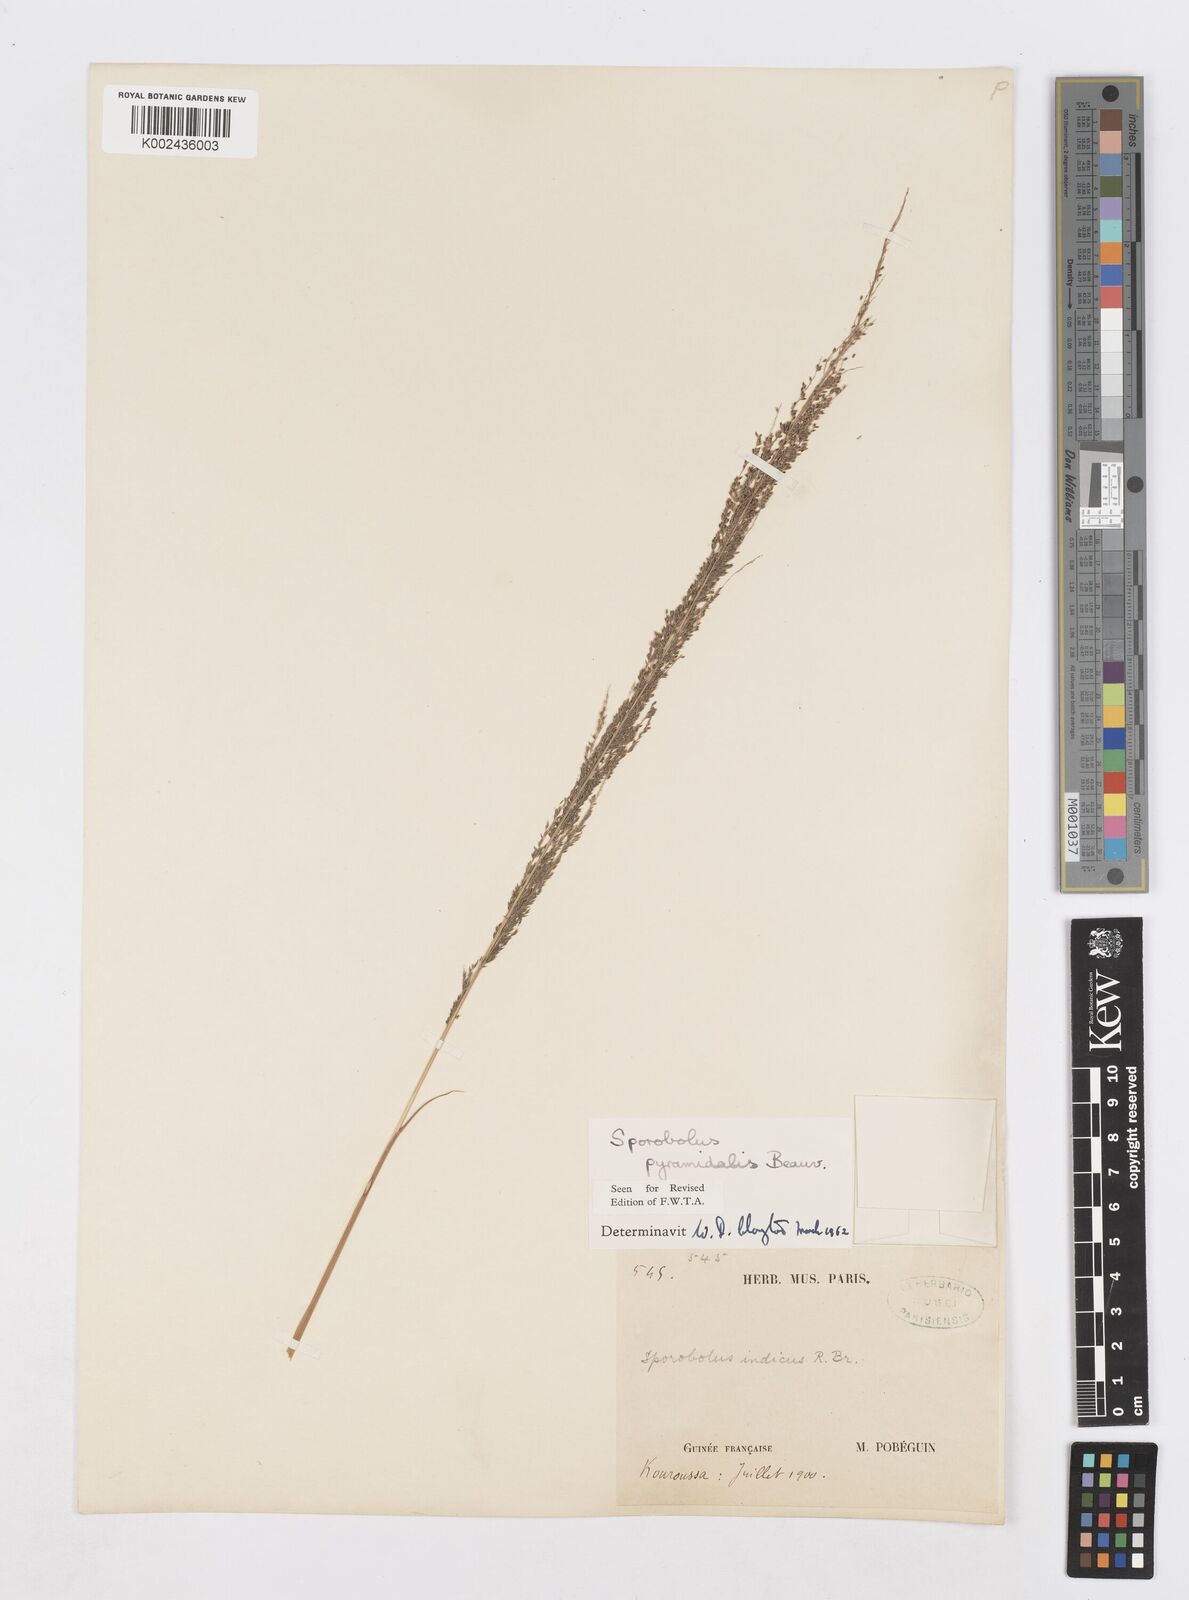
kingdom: Plantae
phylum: Tracheophyta
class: Liliopsida
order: Poales
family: Poaceae
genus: Sporobolus
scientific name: Sporobolus pyramidalis
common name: West indian dropseed
